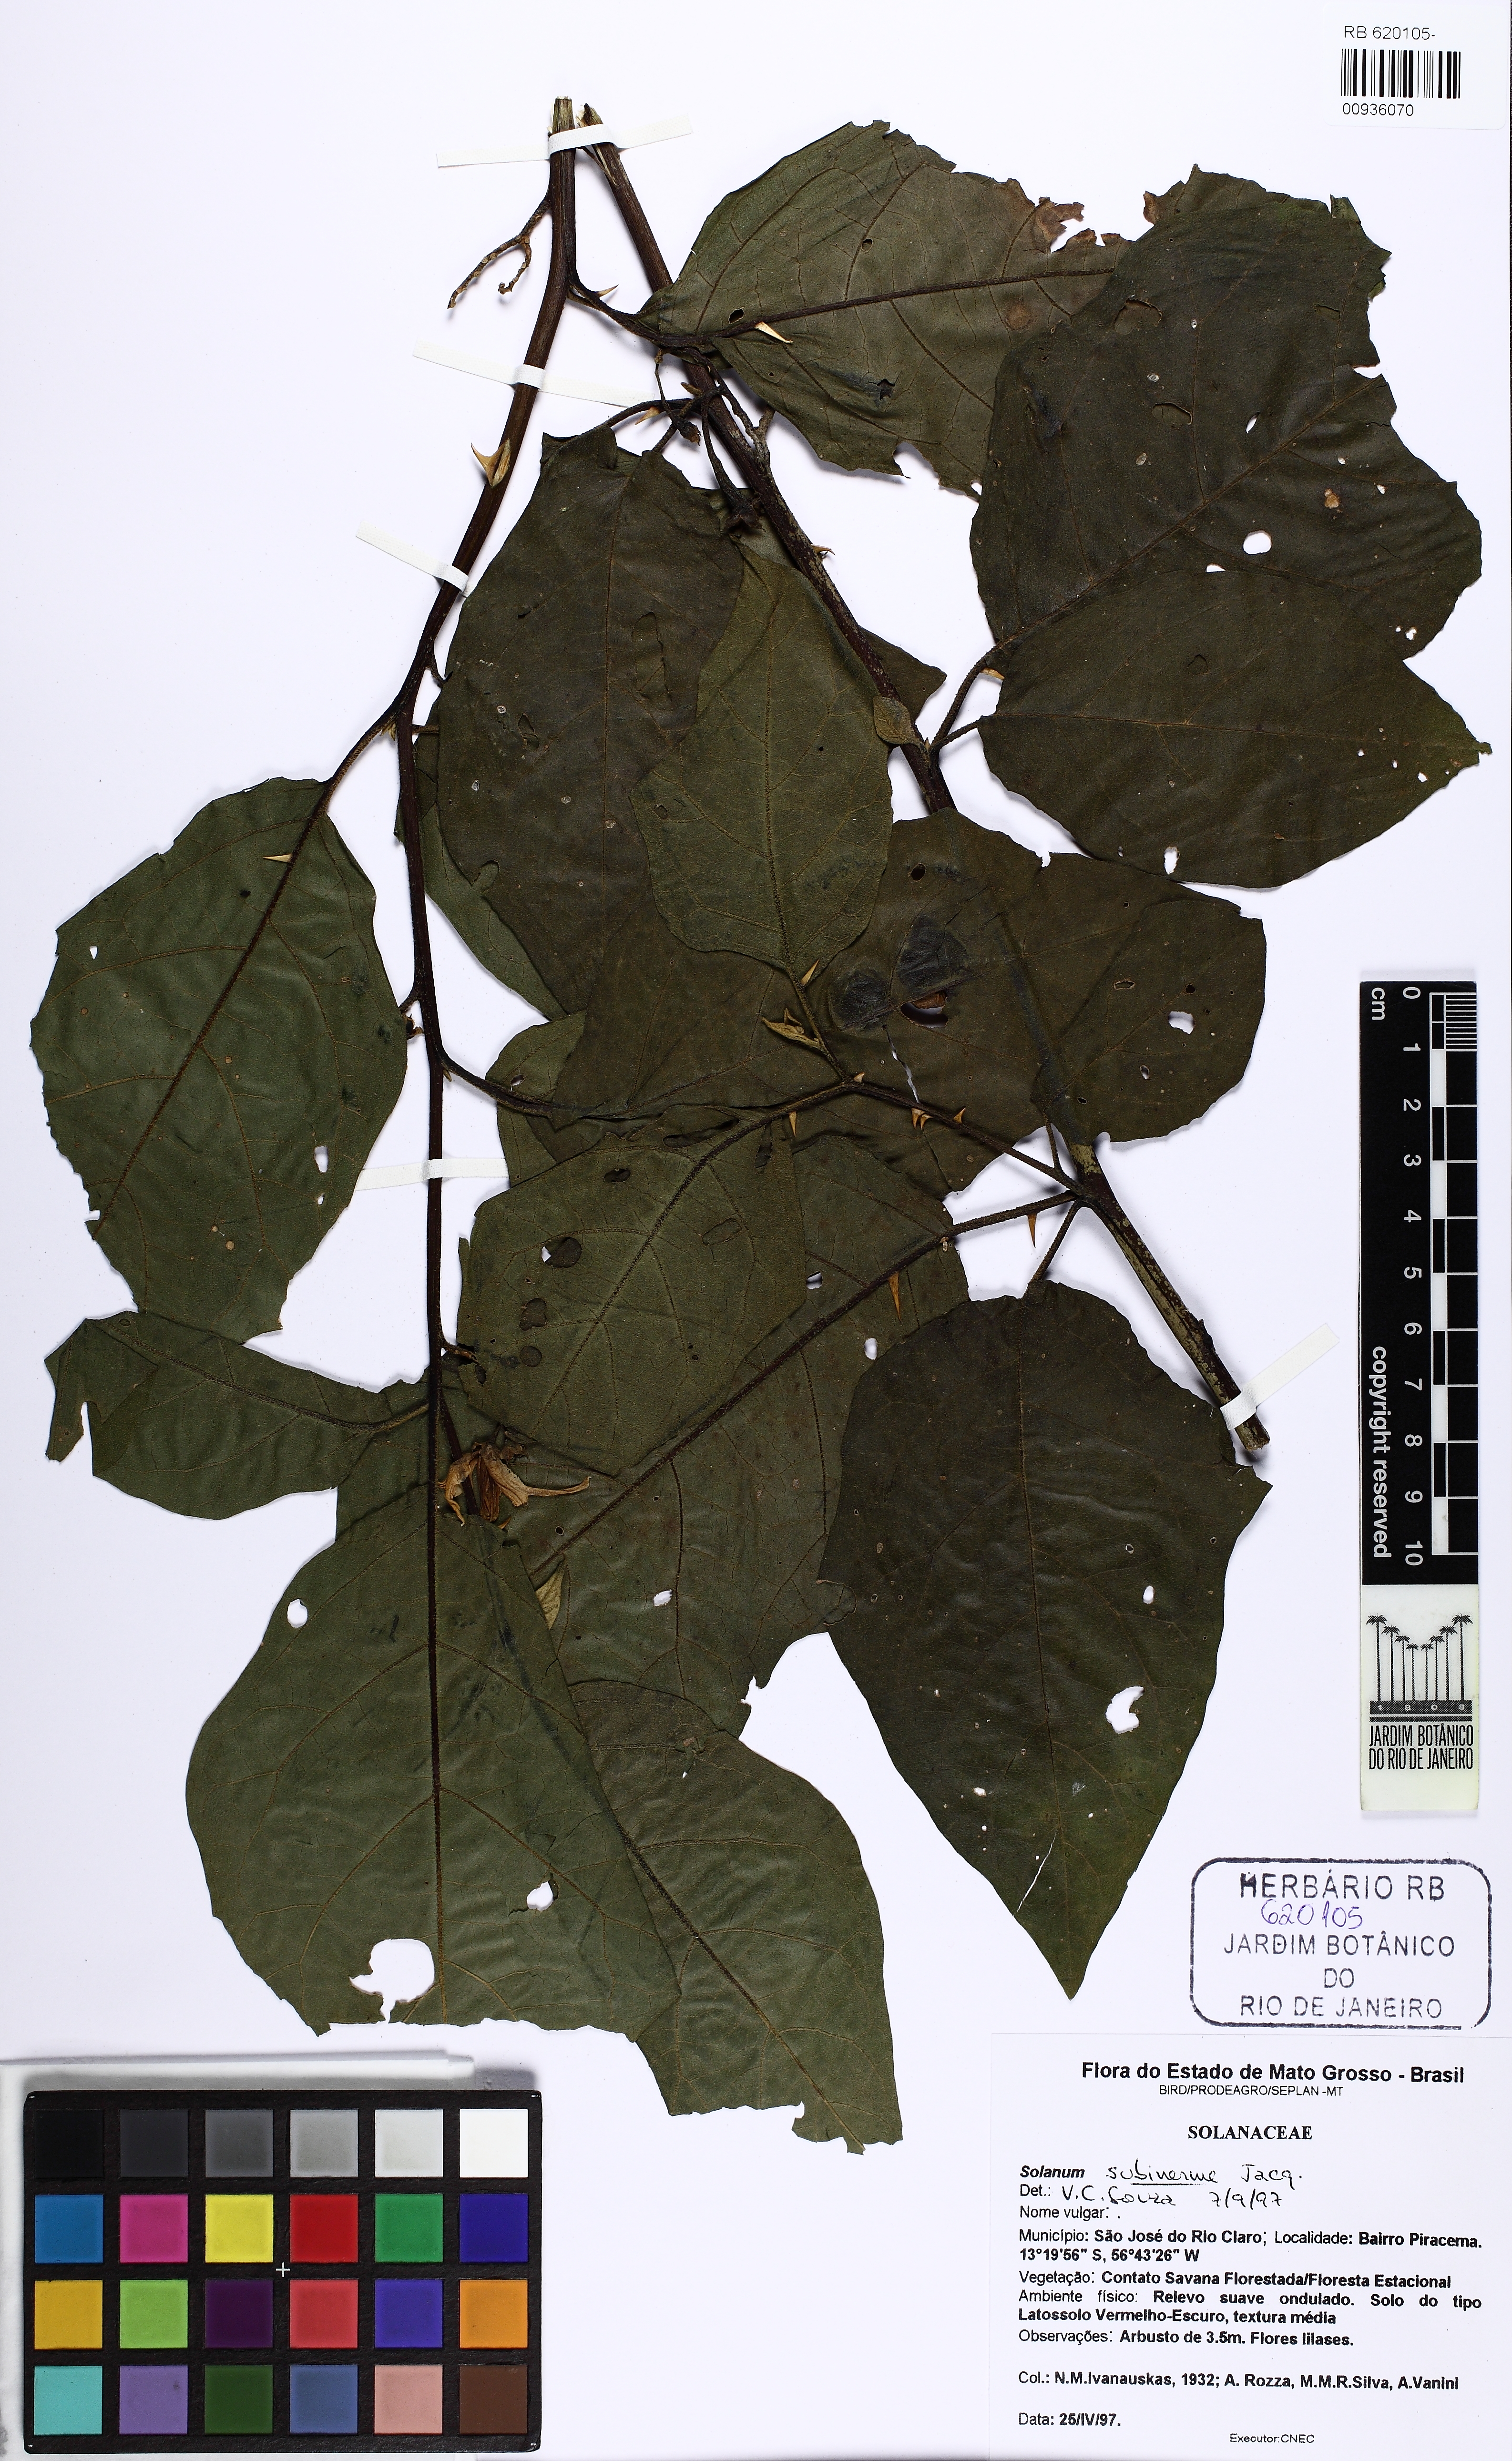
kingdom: Plantae
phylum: Tracheophyta
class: Magnoliopsida
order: Solanales
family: Solanaceae
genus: Solanum
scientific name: Solanum subinerme
